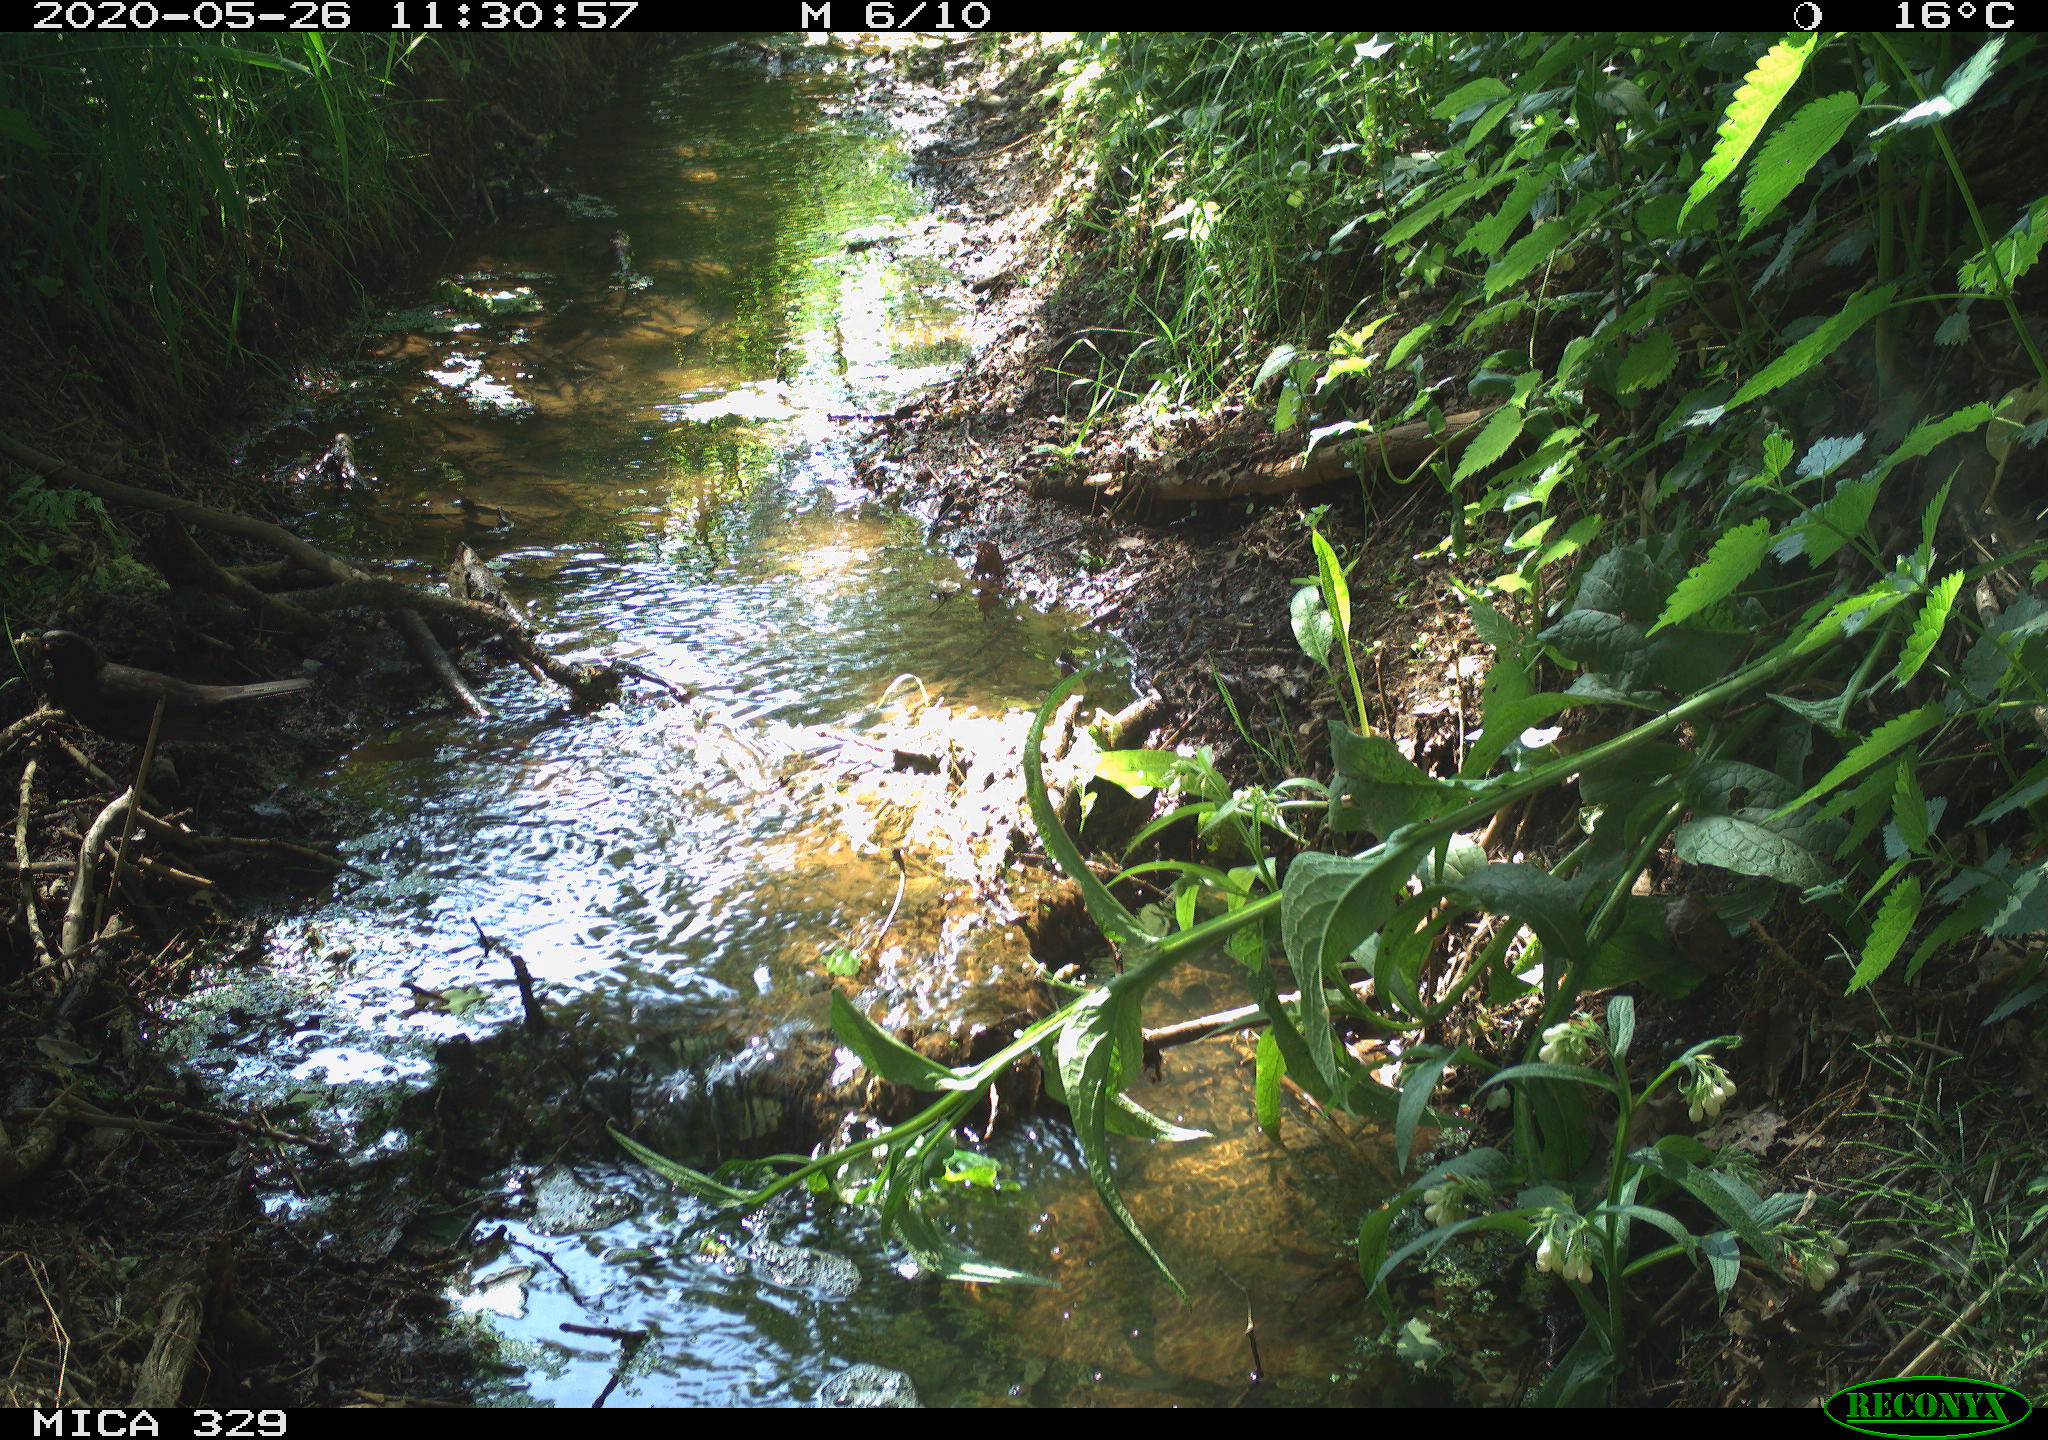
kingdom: Animalia
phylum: Chordata
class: Aves
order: Passeriformes
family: Turdidae
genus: Turdus
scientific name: Turdus merula
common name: Common blackbird
